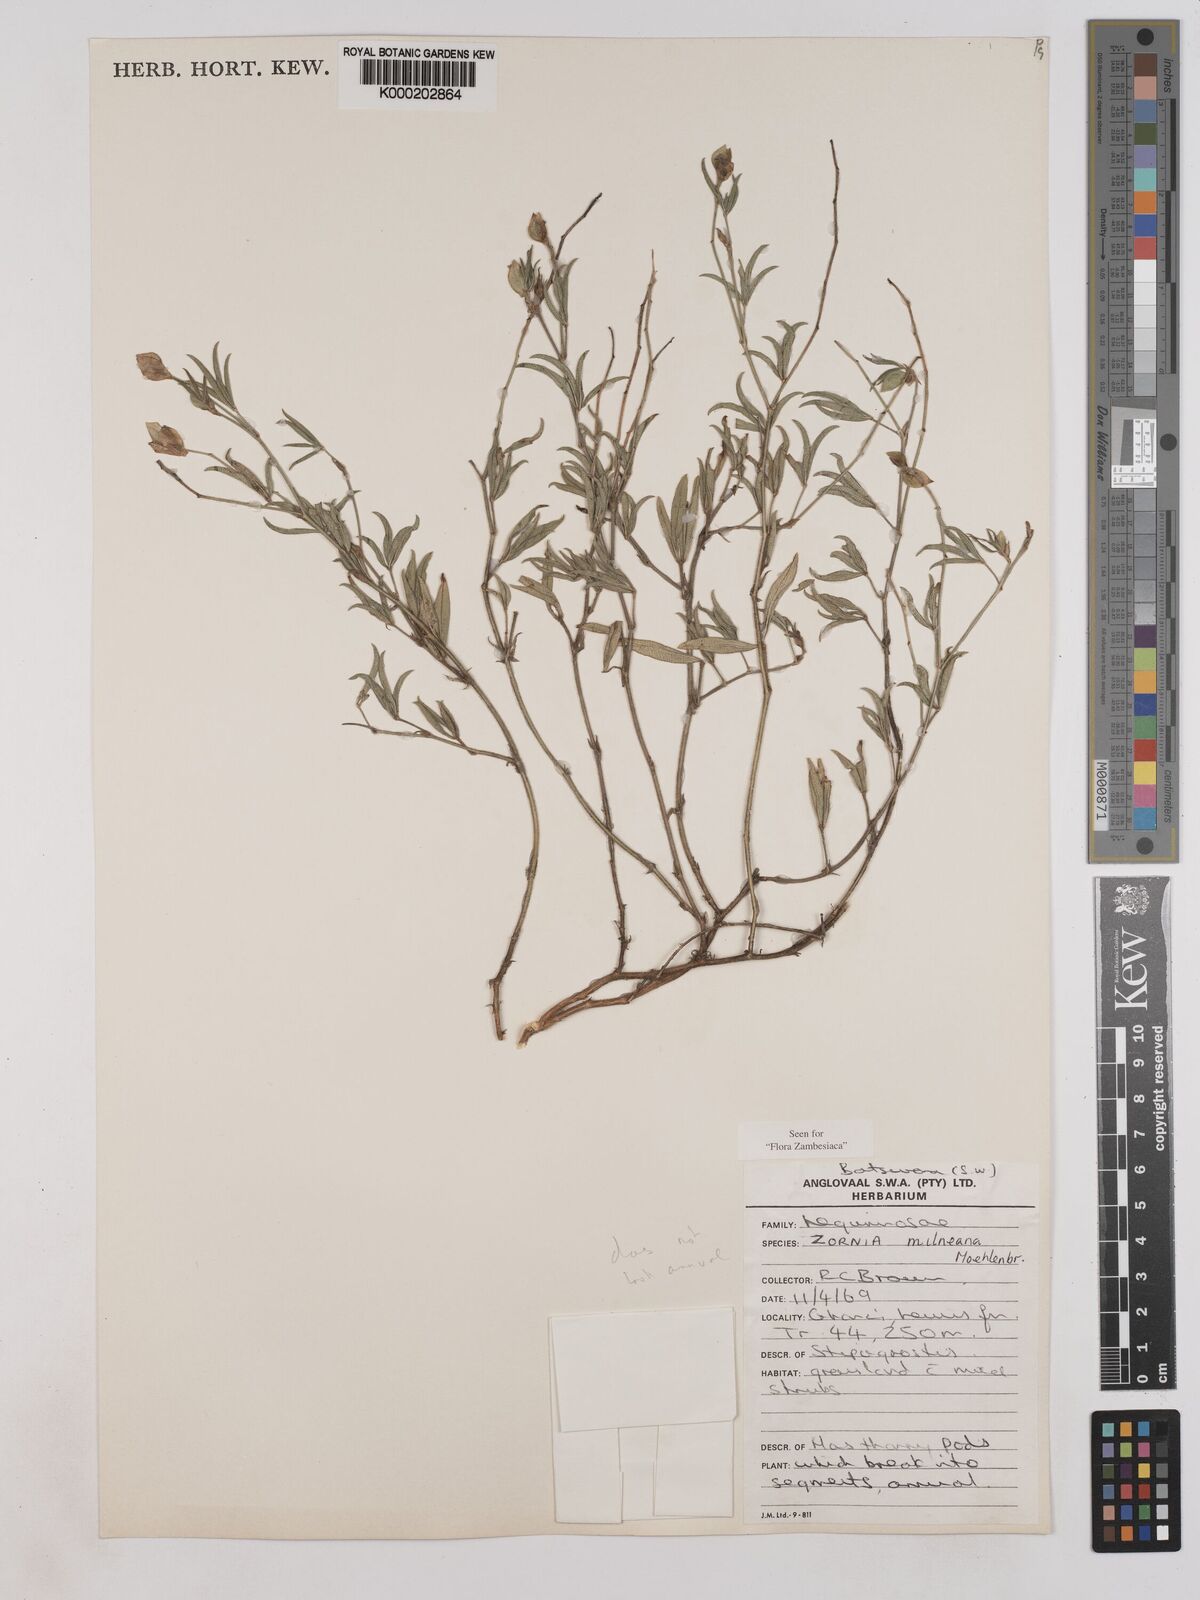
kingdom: Plantae
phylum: Tracheophyta
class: Magnoliopsida
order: Fabales
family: Fabaceae
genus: Zornia
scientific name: Zornia milneana
